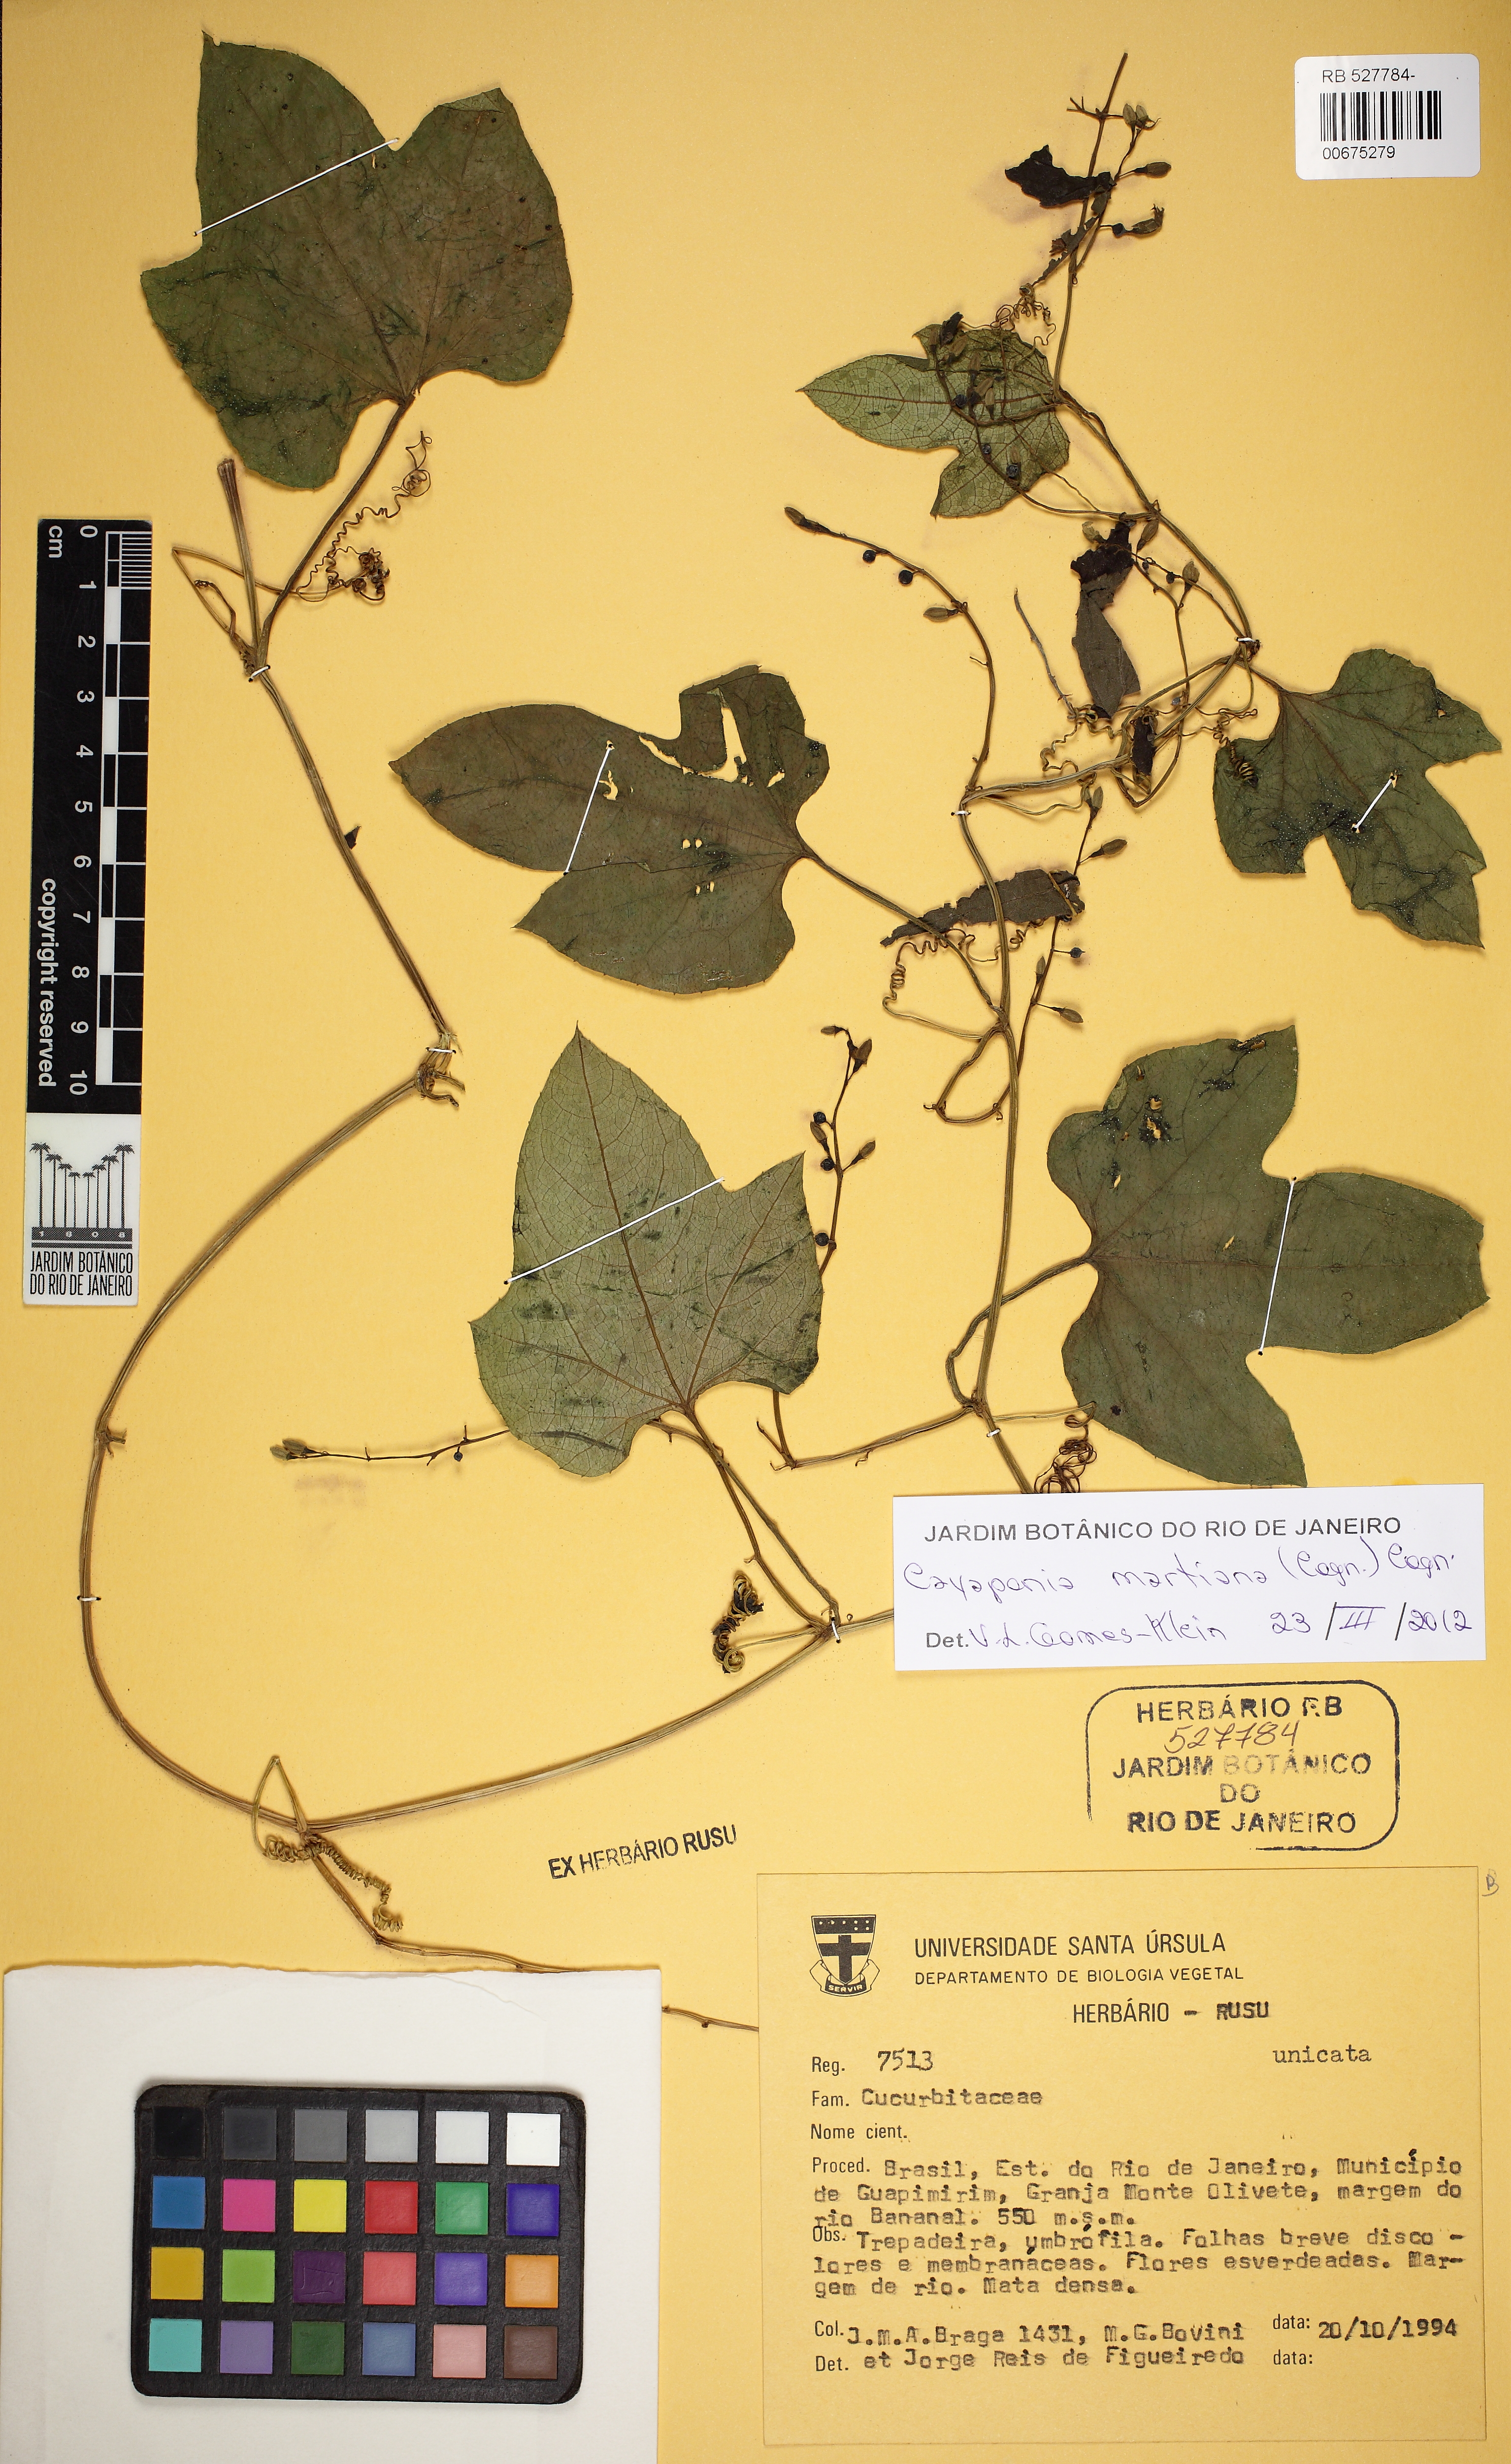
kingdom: Plantae
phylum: Tracheophyta
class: Magnoliopsida
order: Cucurbitales
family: Cucurbitaceae
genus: Cayaponia
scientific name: Cayaponia martiana
